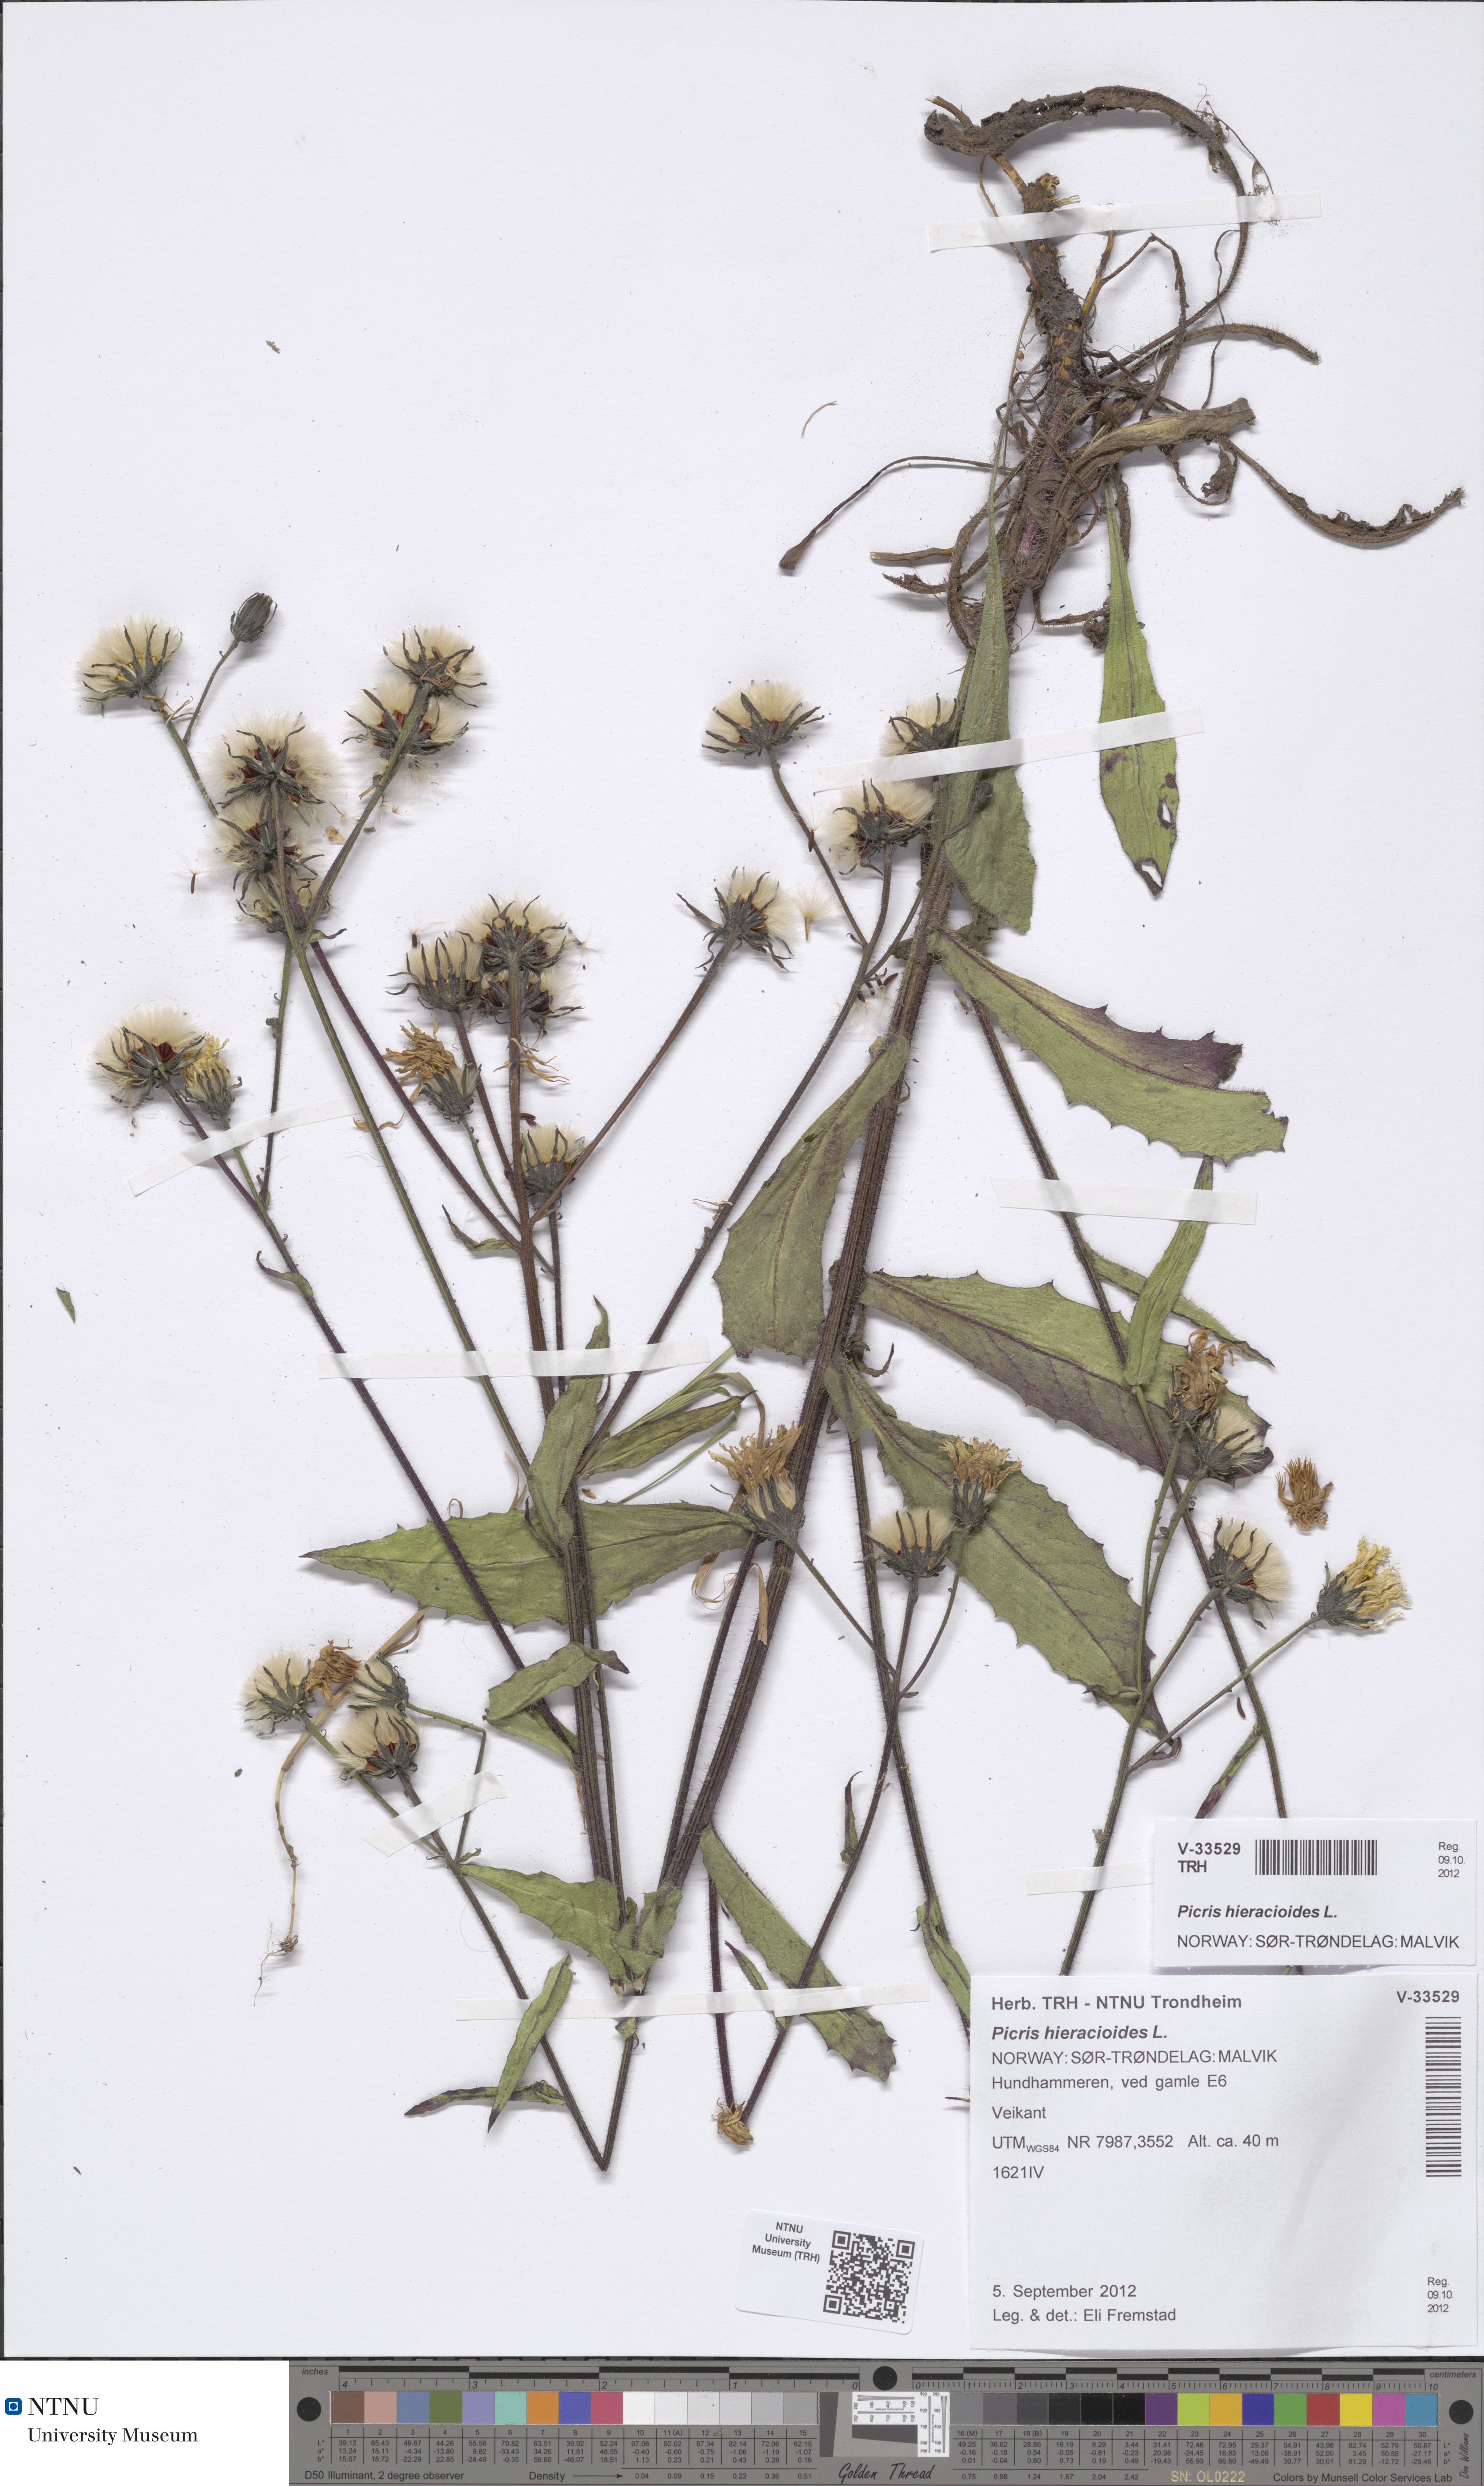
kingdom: Plantae
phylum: Tracheophyta
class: Magnoliopsida
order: Asterales
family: Asteraceae
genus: Picris
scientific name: Picris hieracioides
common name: Hawkweed oxtongue
